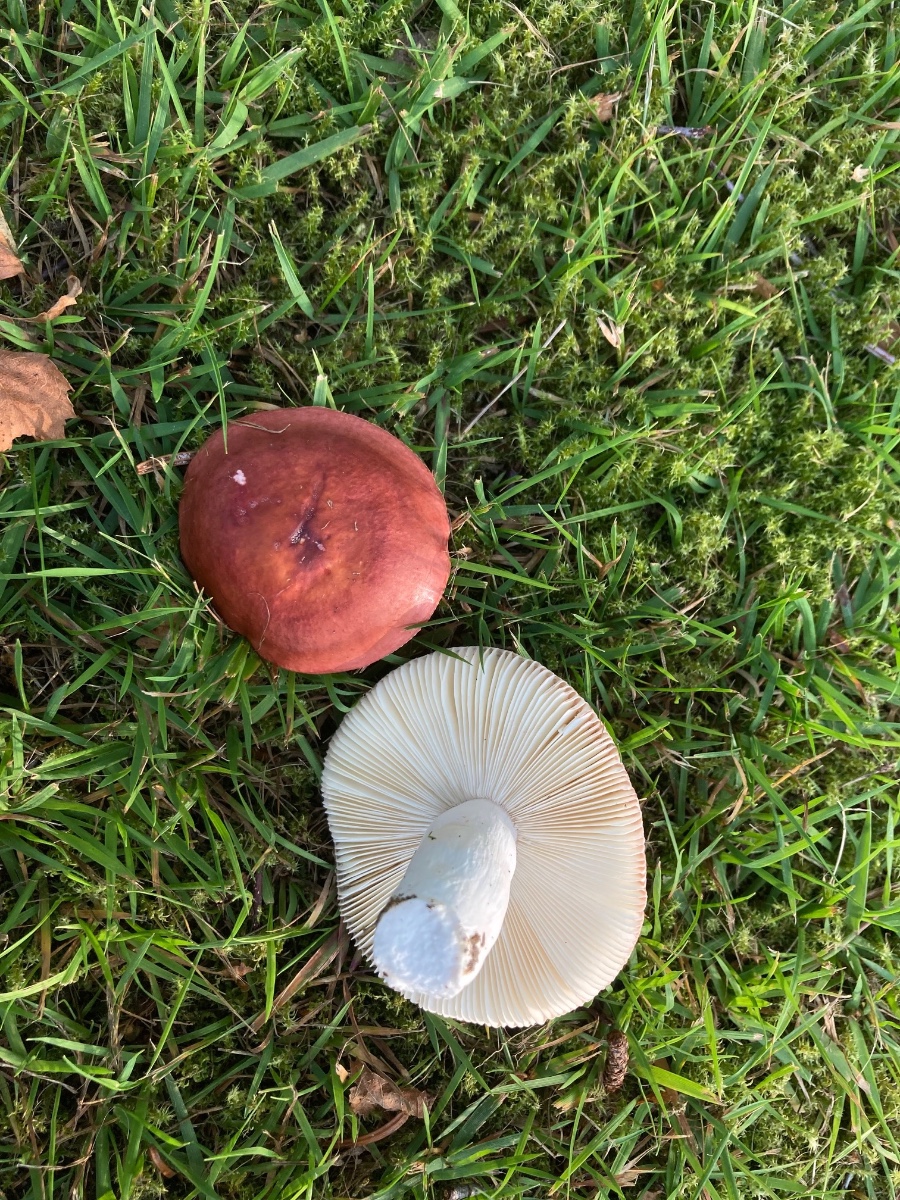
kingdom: Fungi
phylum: Basidiomycota
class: Agaricomycetes
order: Russulales
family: Russulaceae
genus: Russula
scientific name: Russula velenovskyi
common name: orangerød skørhat
